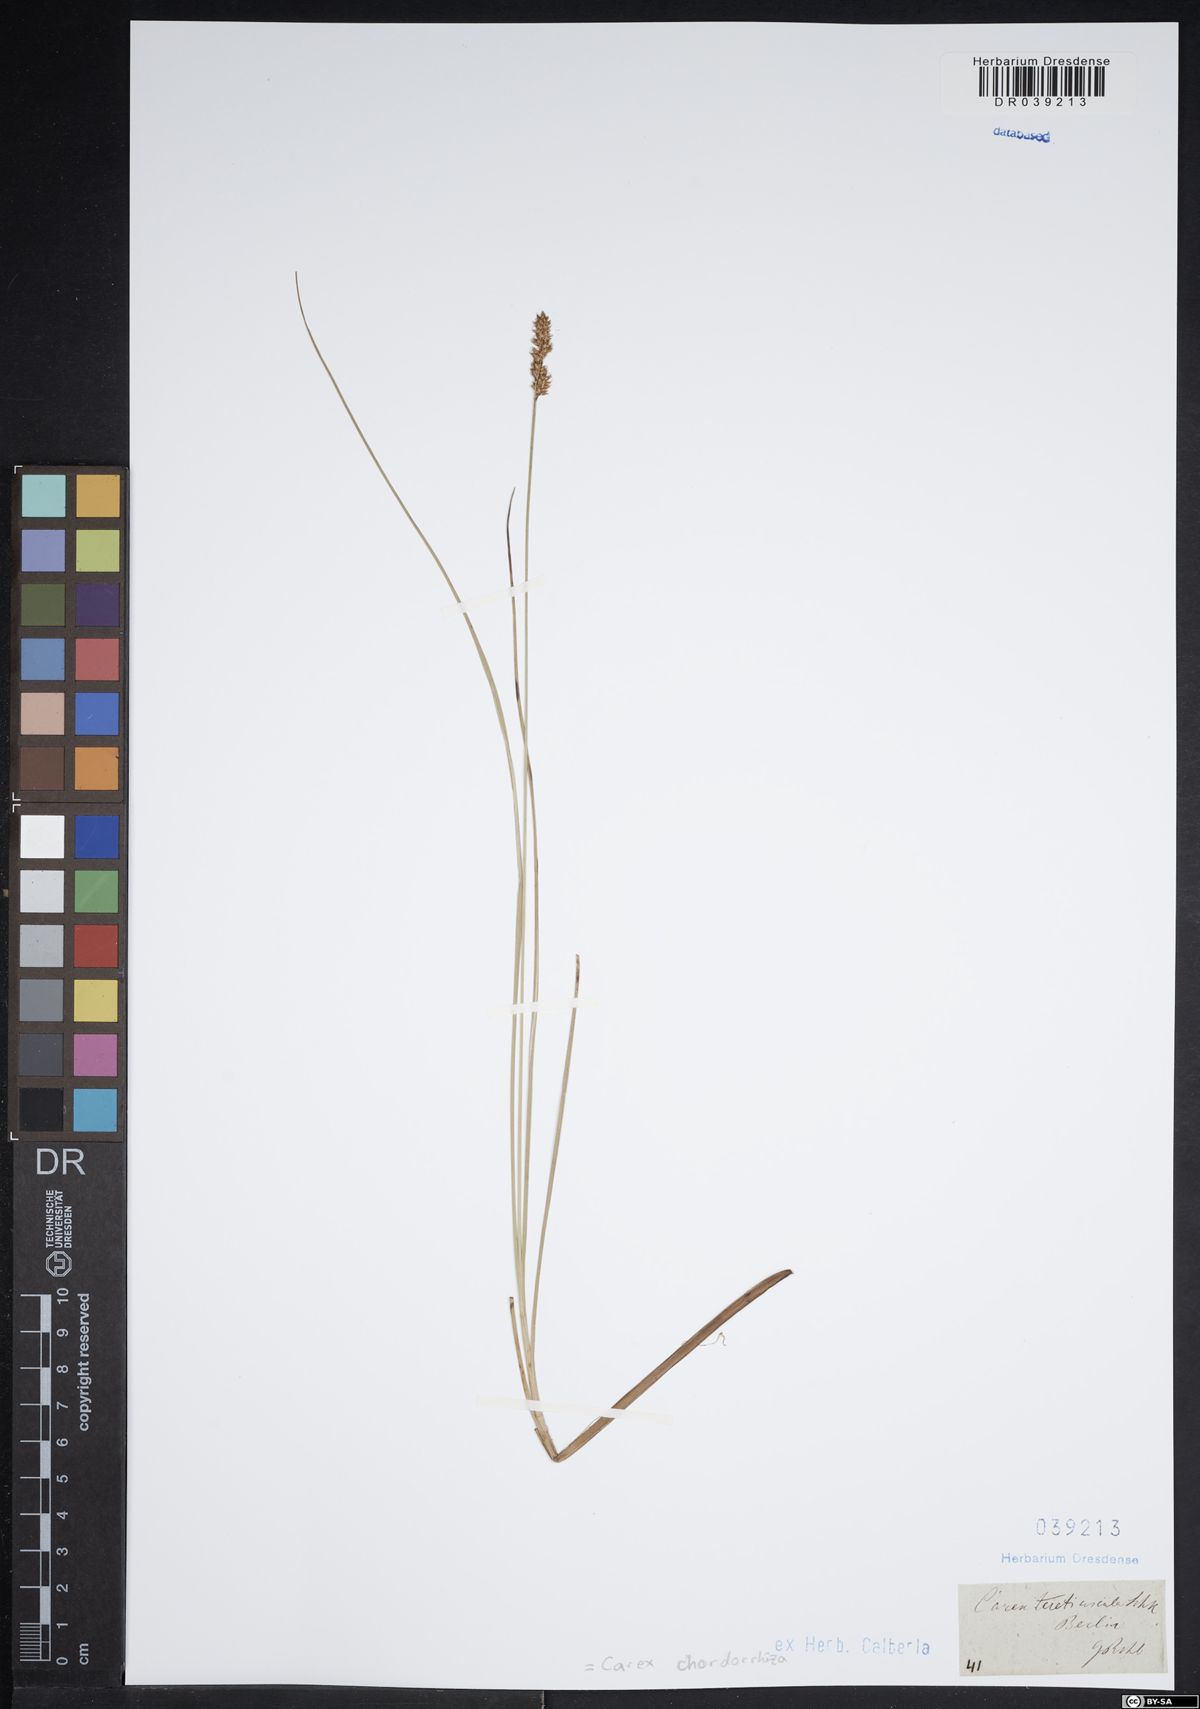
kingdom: Plantae
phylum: Tracheophyta
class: Liliopsida
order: Poales
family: Cyperaceae
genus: Carex
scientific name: Carex chordorrhiza
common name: String sedge
